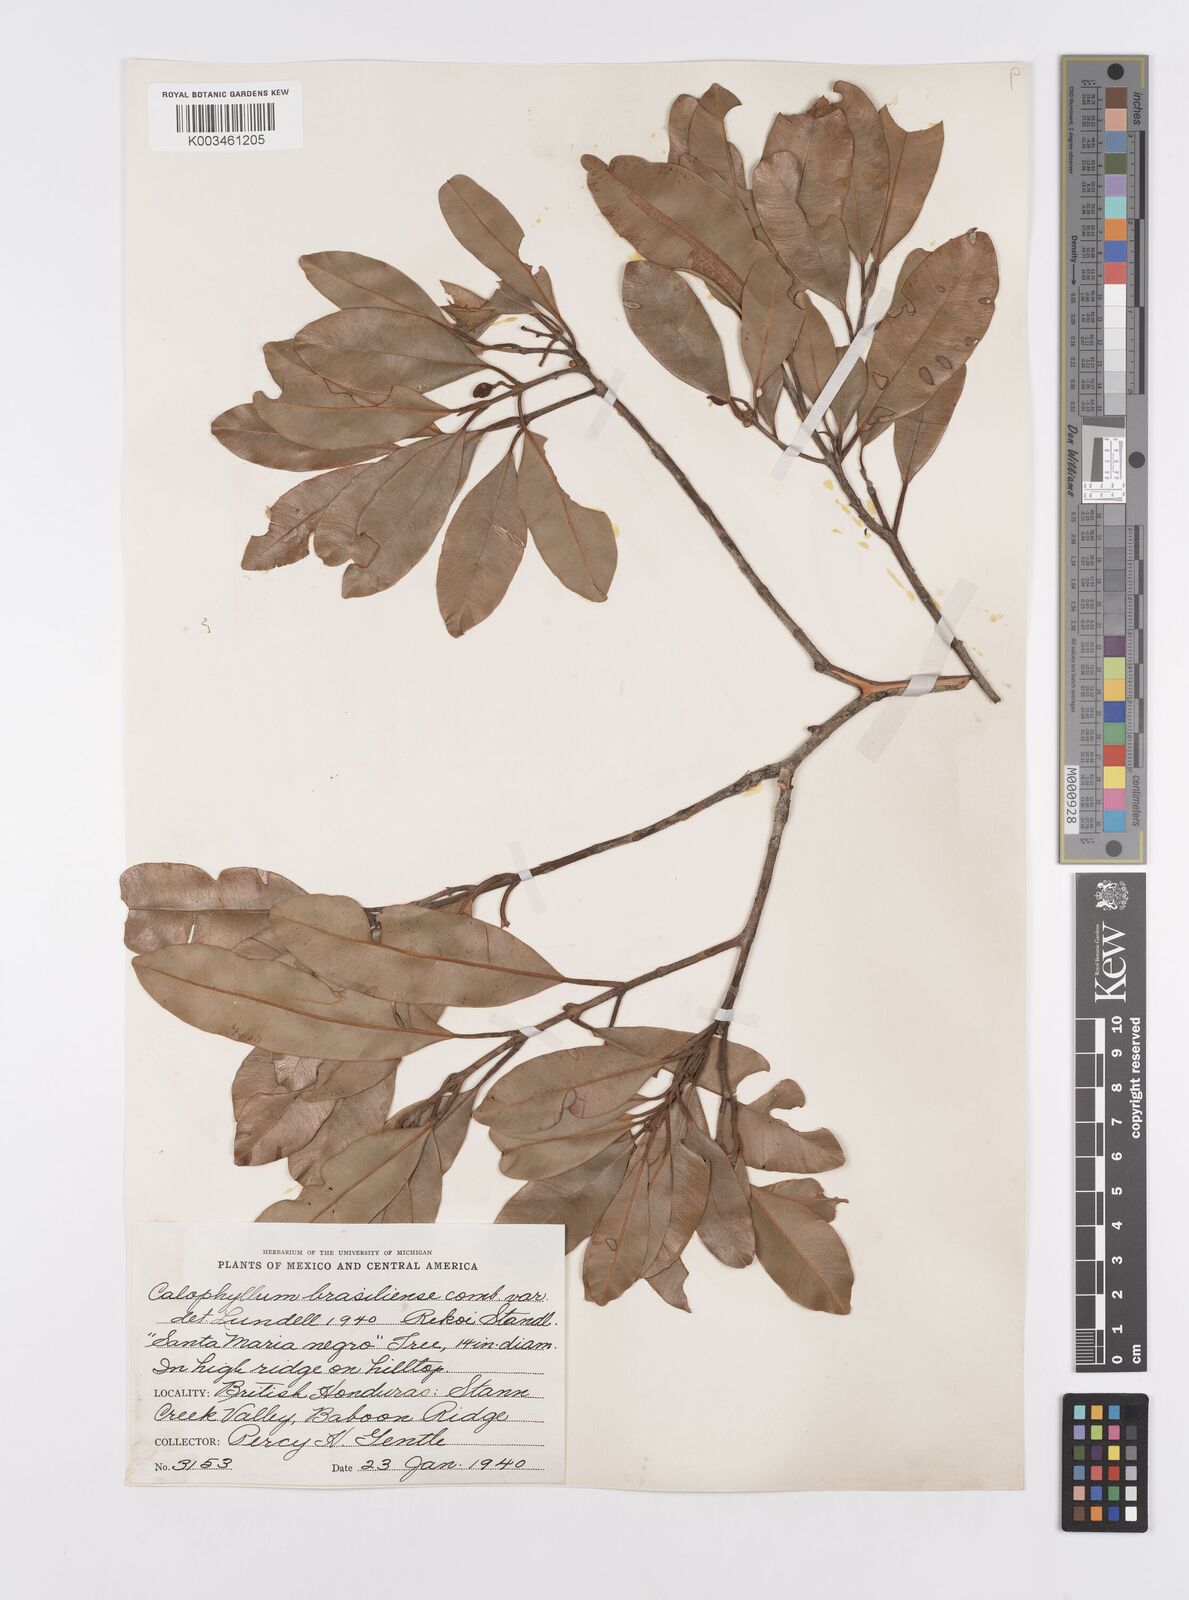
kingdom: Plantae
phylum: Tracheophyta
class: Magnoliopsida
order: Malpighiales
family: Calophyllaceae
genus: Calophyllum
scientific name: Calophyllum brasiliense
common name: Santa maria
